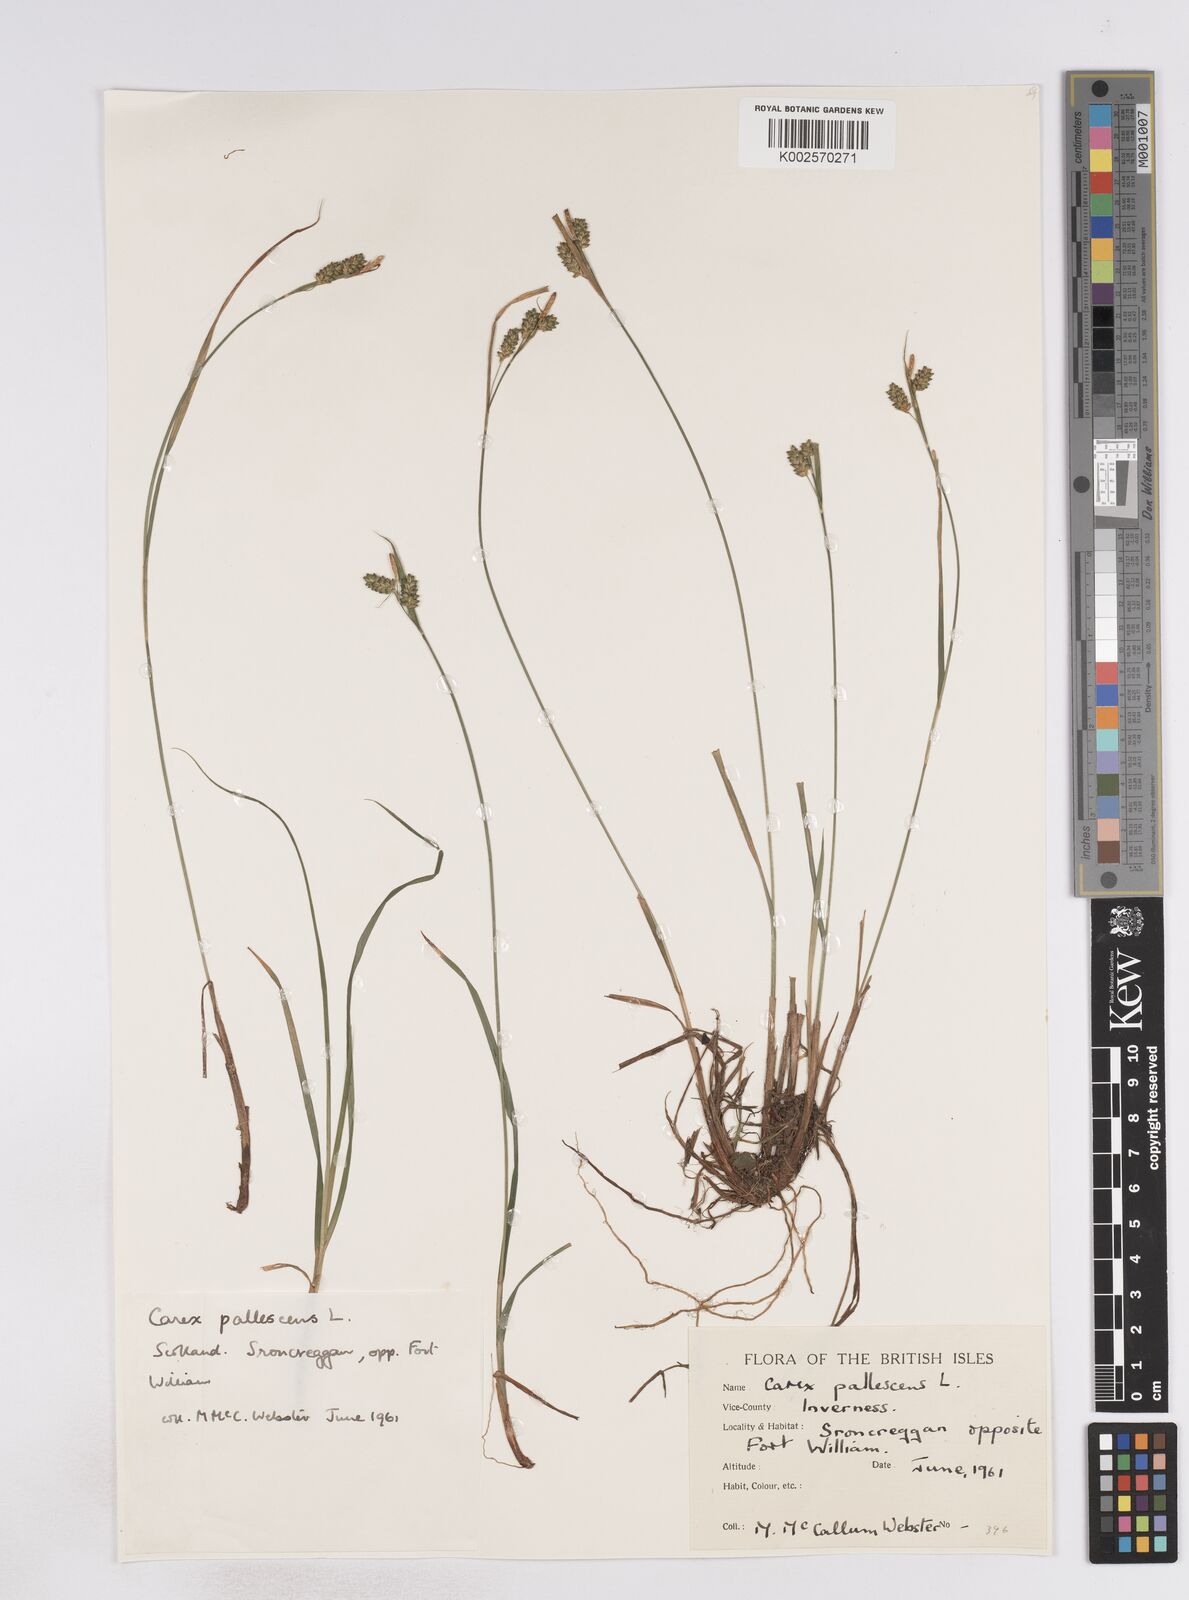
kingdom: Plantae
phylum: Tracheophyta
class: Liliopsida
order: Poales
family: Cyperaceae
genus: Carex
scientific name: Carex pallescens
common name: Pale sedge
